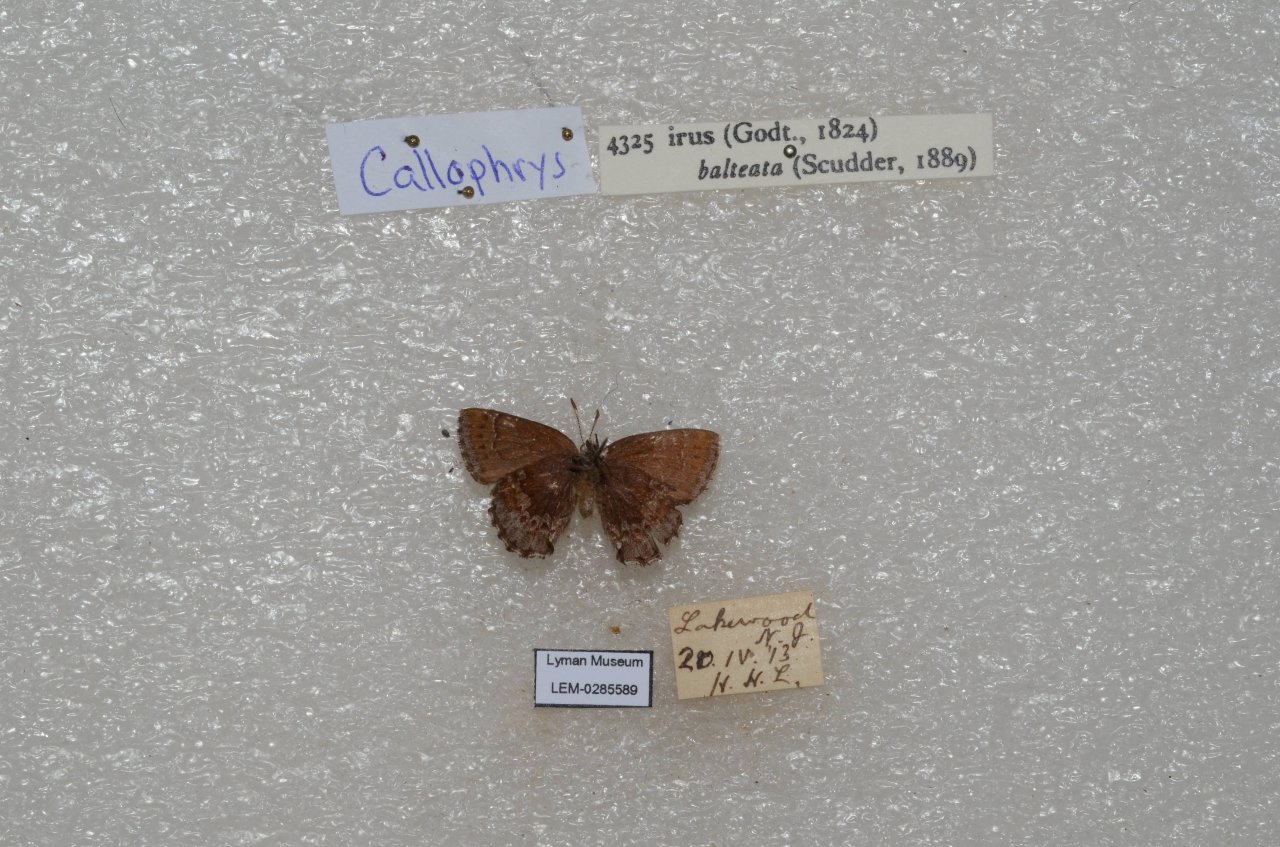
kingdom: Animalia
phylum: Arthropoda
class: Insecta
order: Lepidoptera
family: Lycaenidae
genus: Thecla
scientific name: Thecla irus
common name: Frosted Elfin
